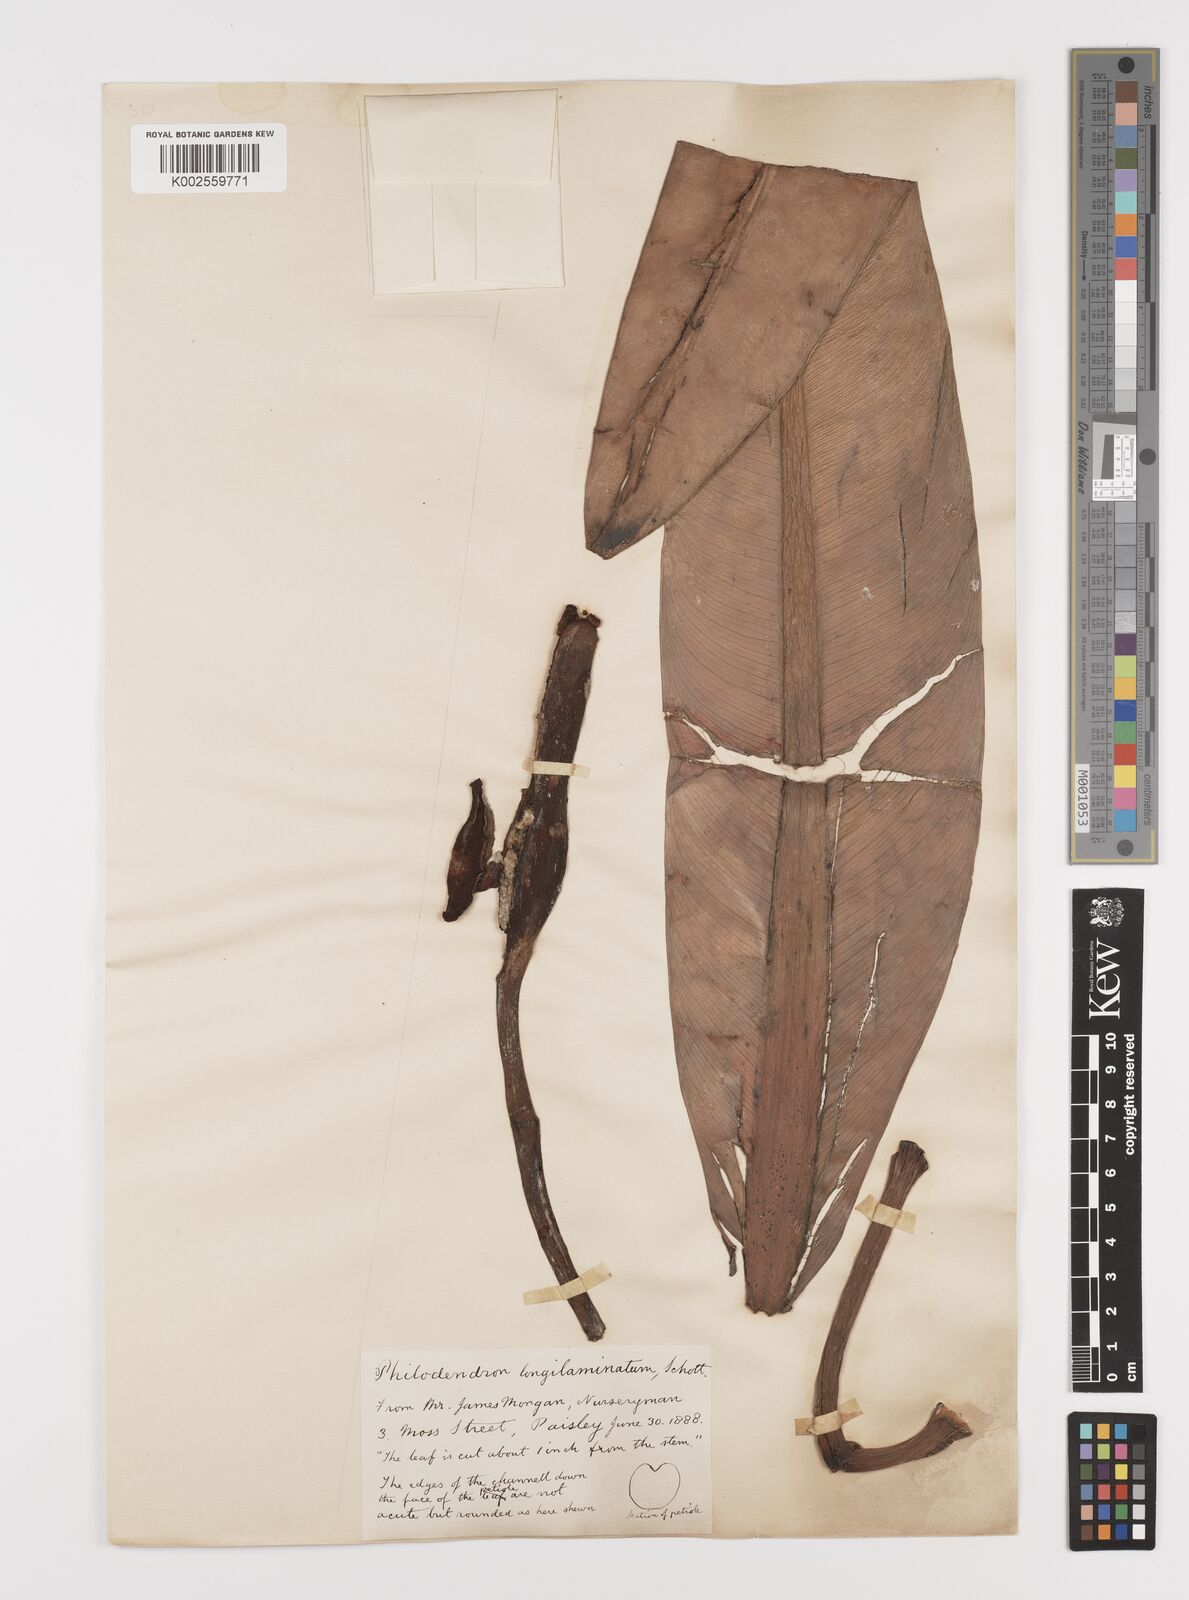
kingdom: Plantae
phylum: Tracheophyta
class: Liliopsida
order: Alismatales
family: Araceae
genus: Philodendron
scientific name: Philodendron longilaminatum
